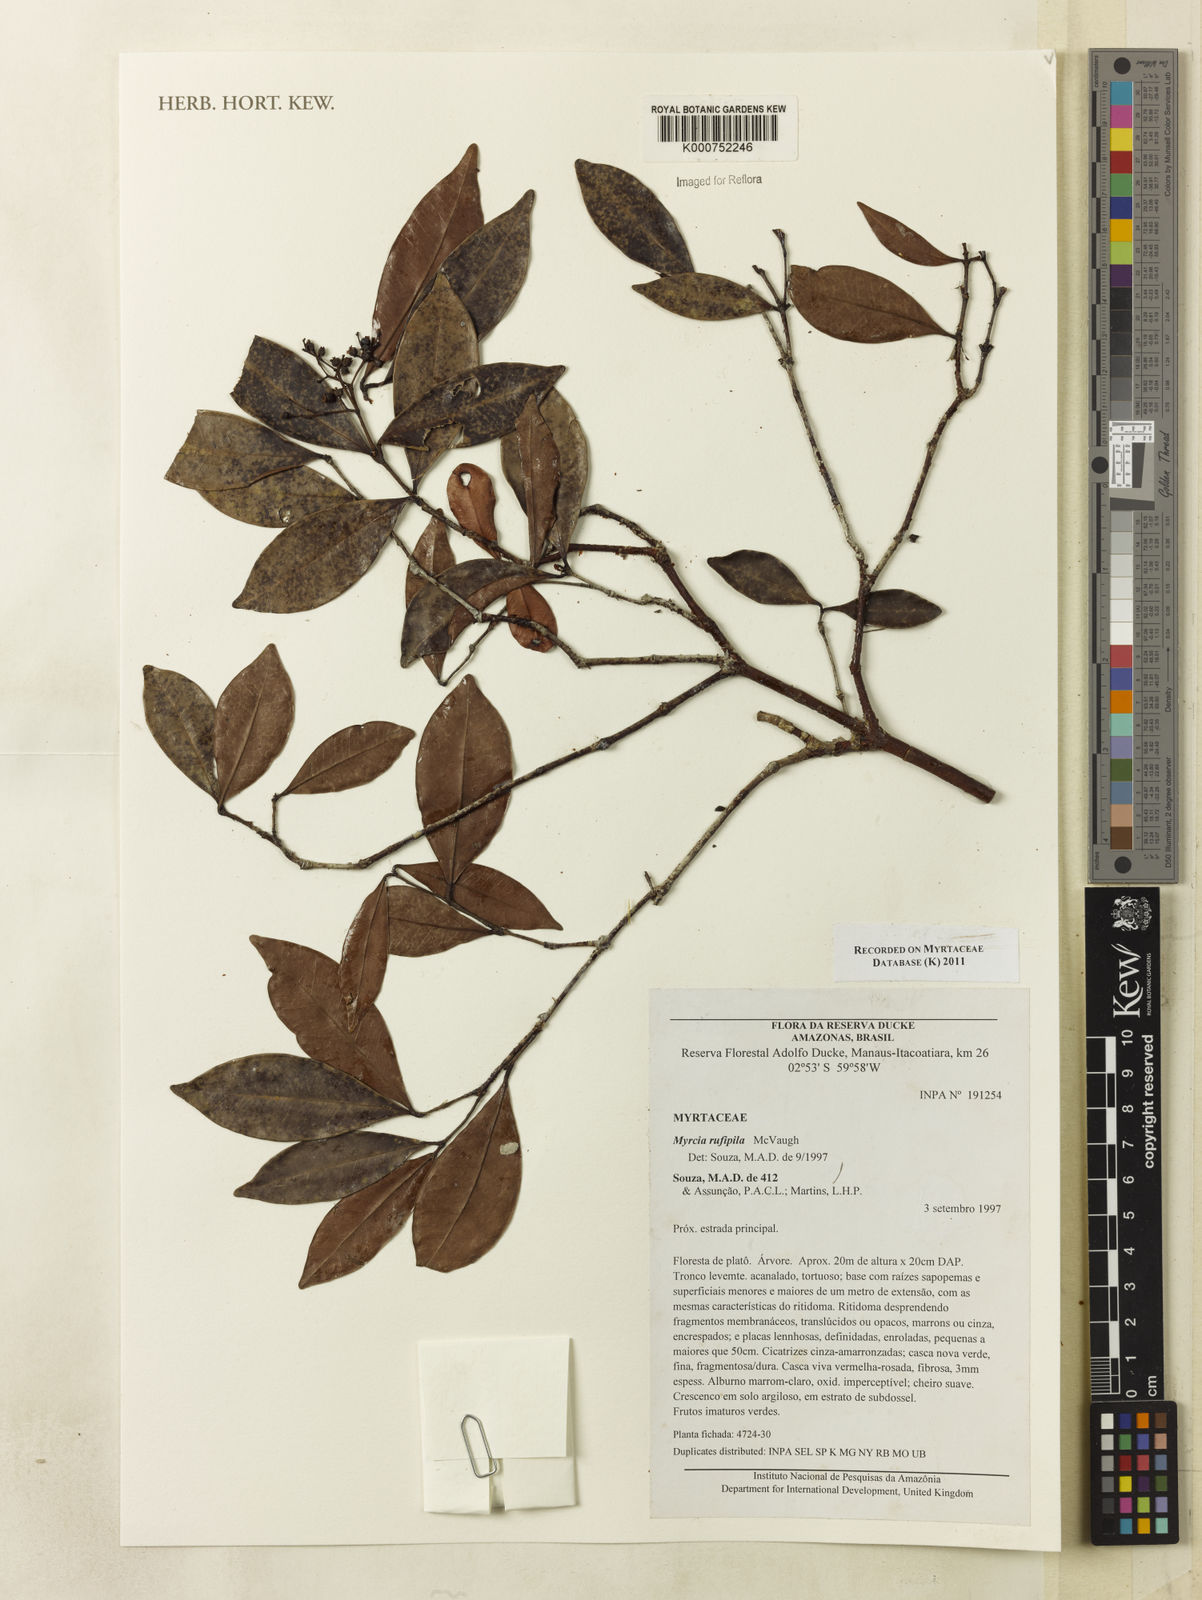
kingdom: Plantae
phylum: Tracheophyta
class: Magnoliopsida
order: Myrtales
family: Myrtaceae
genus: Myrcia
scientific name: Myrcia rufipila
